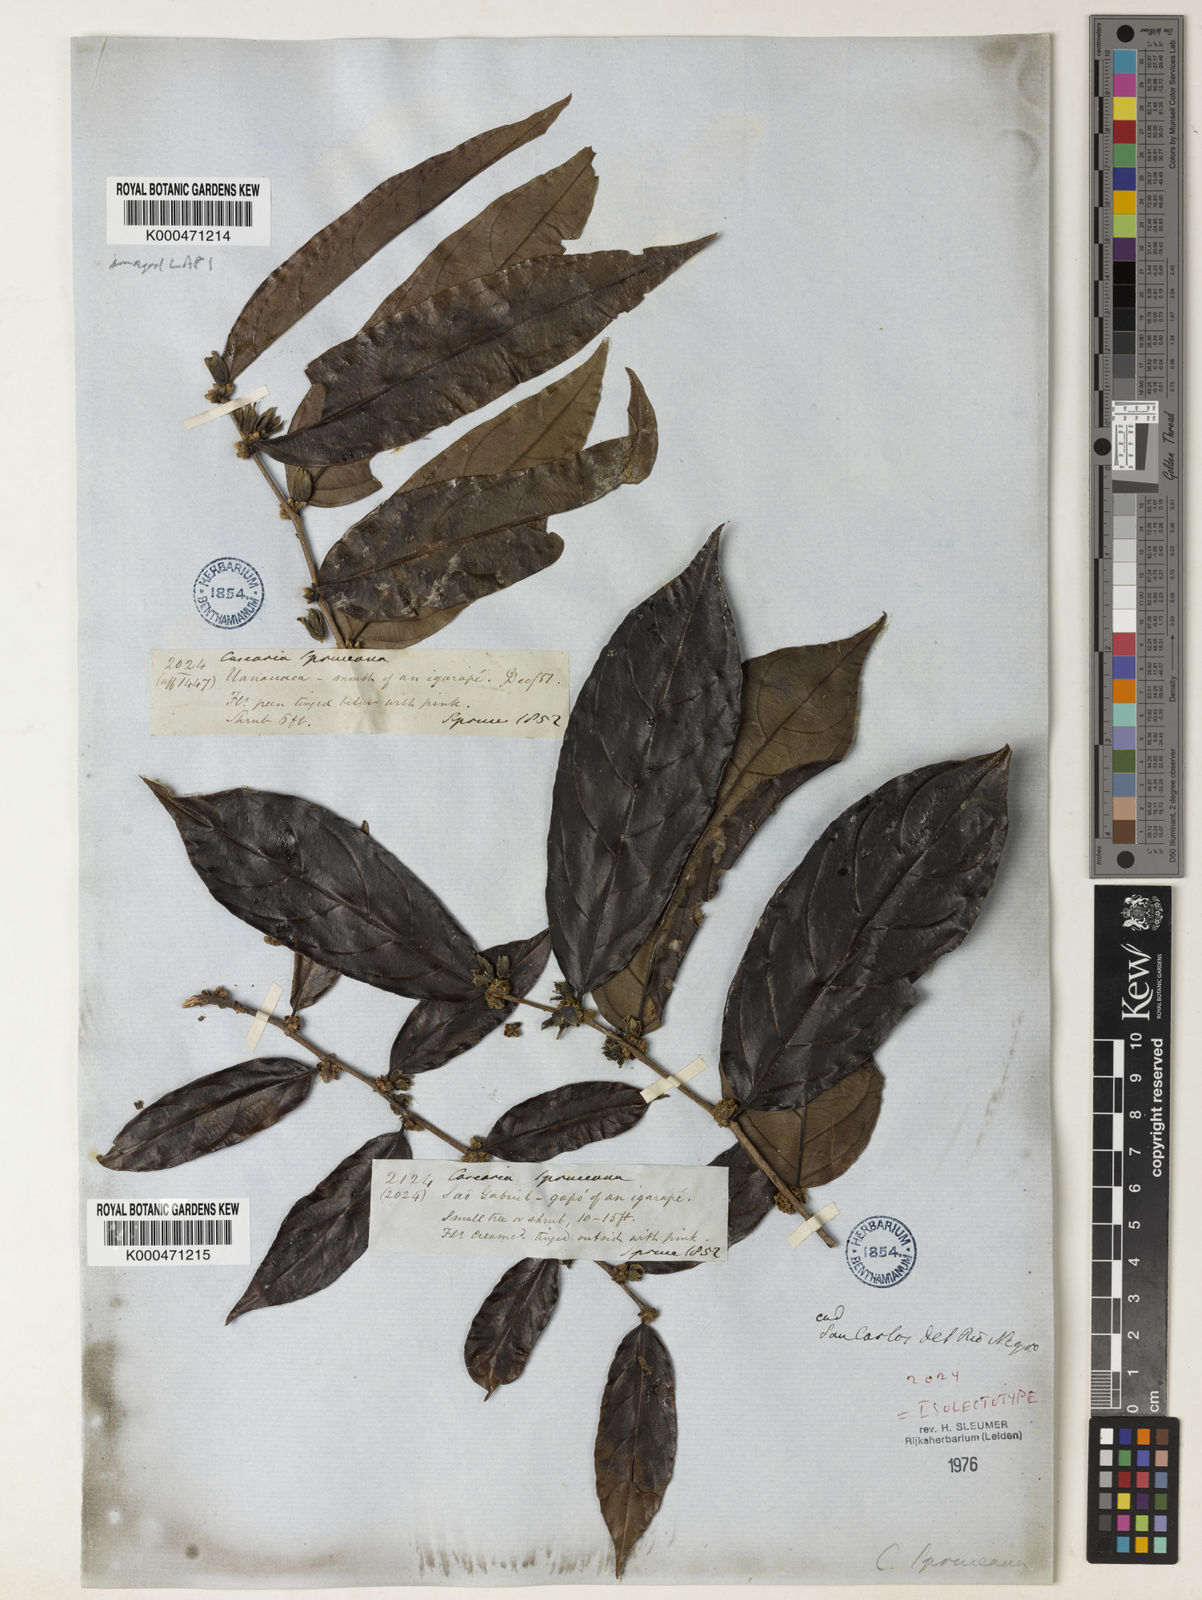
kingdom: Plantae
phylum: Tracheophyta
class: Magnoliopsida
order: Malpighiales
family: Salicaceae
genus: Piparea
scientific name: Piparea spruceana
